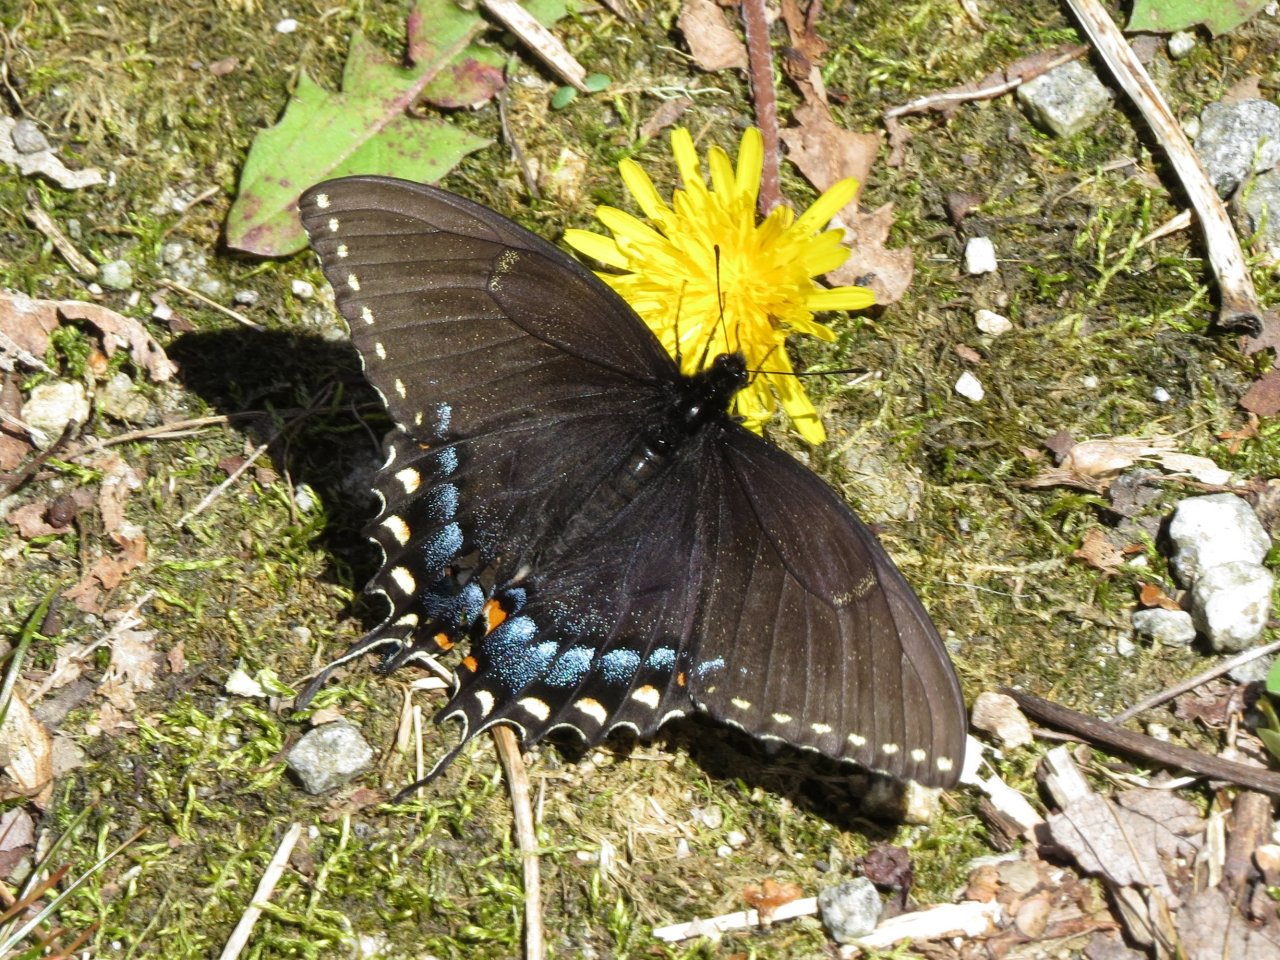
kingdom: Animalia
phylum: Arthropoda
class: Insecta
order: Lepidoptera
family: Papilionidae
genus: Papilio
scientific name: Papilio
